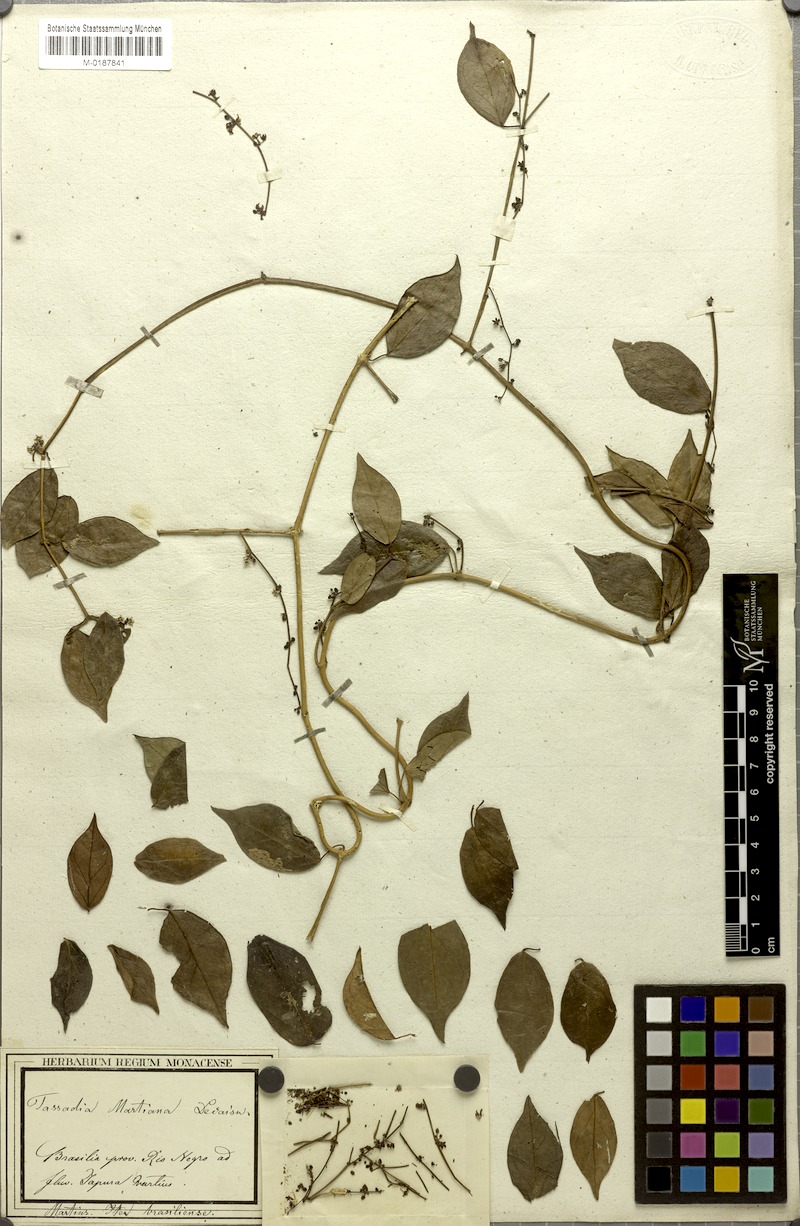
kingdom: Plantae
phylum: Tracheophyta
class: Magnoliopsida
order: Gentianales
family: Apocynaceae
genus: Tassadia
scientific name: Tassadia martiana
